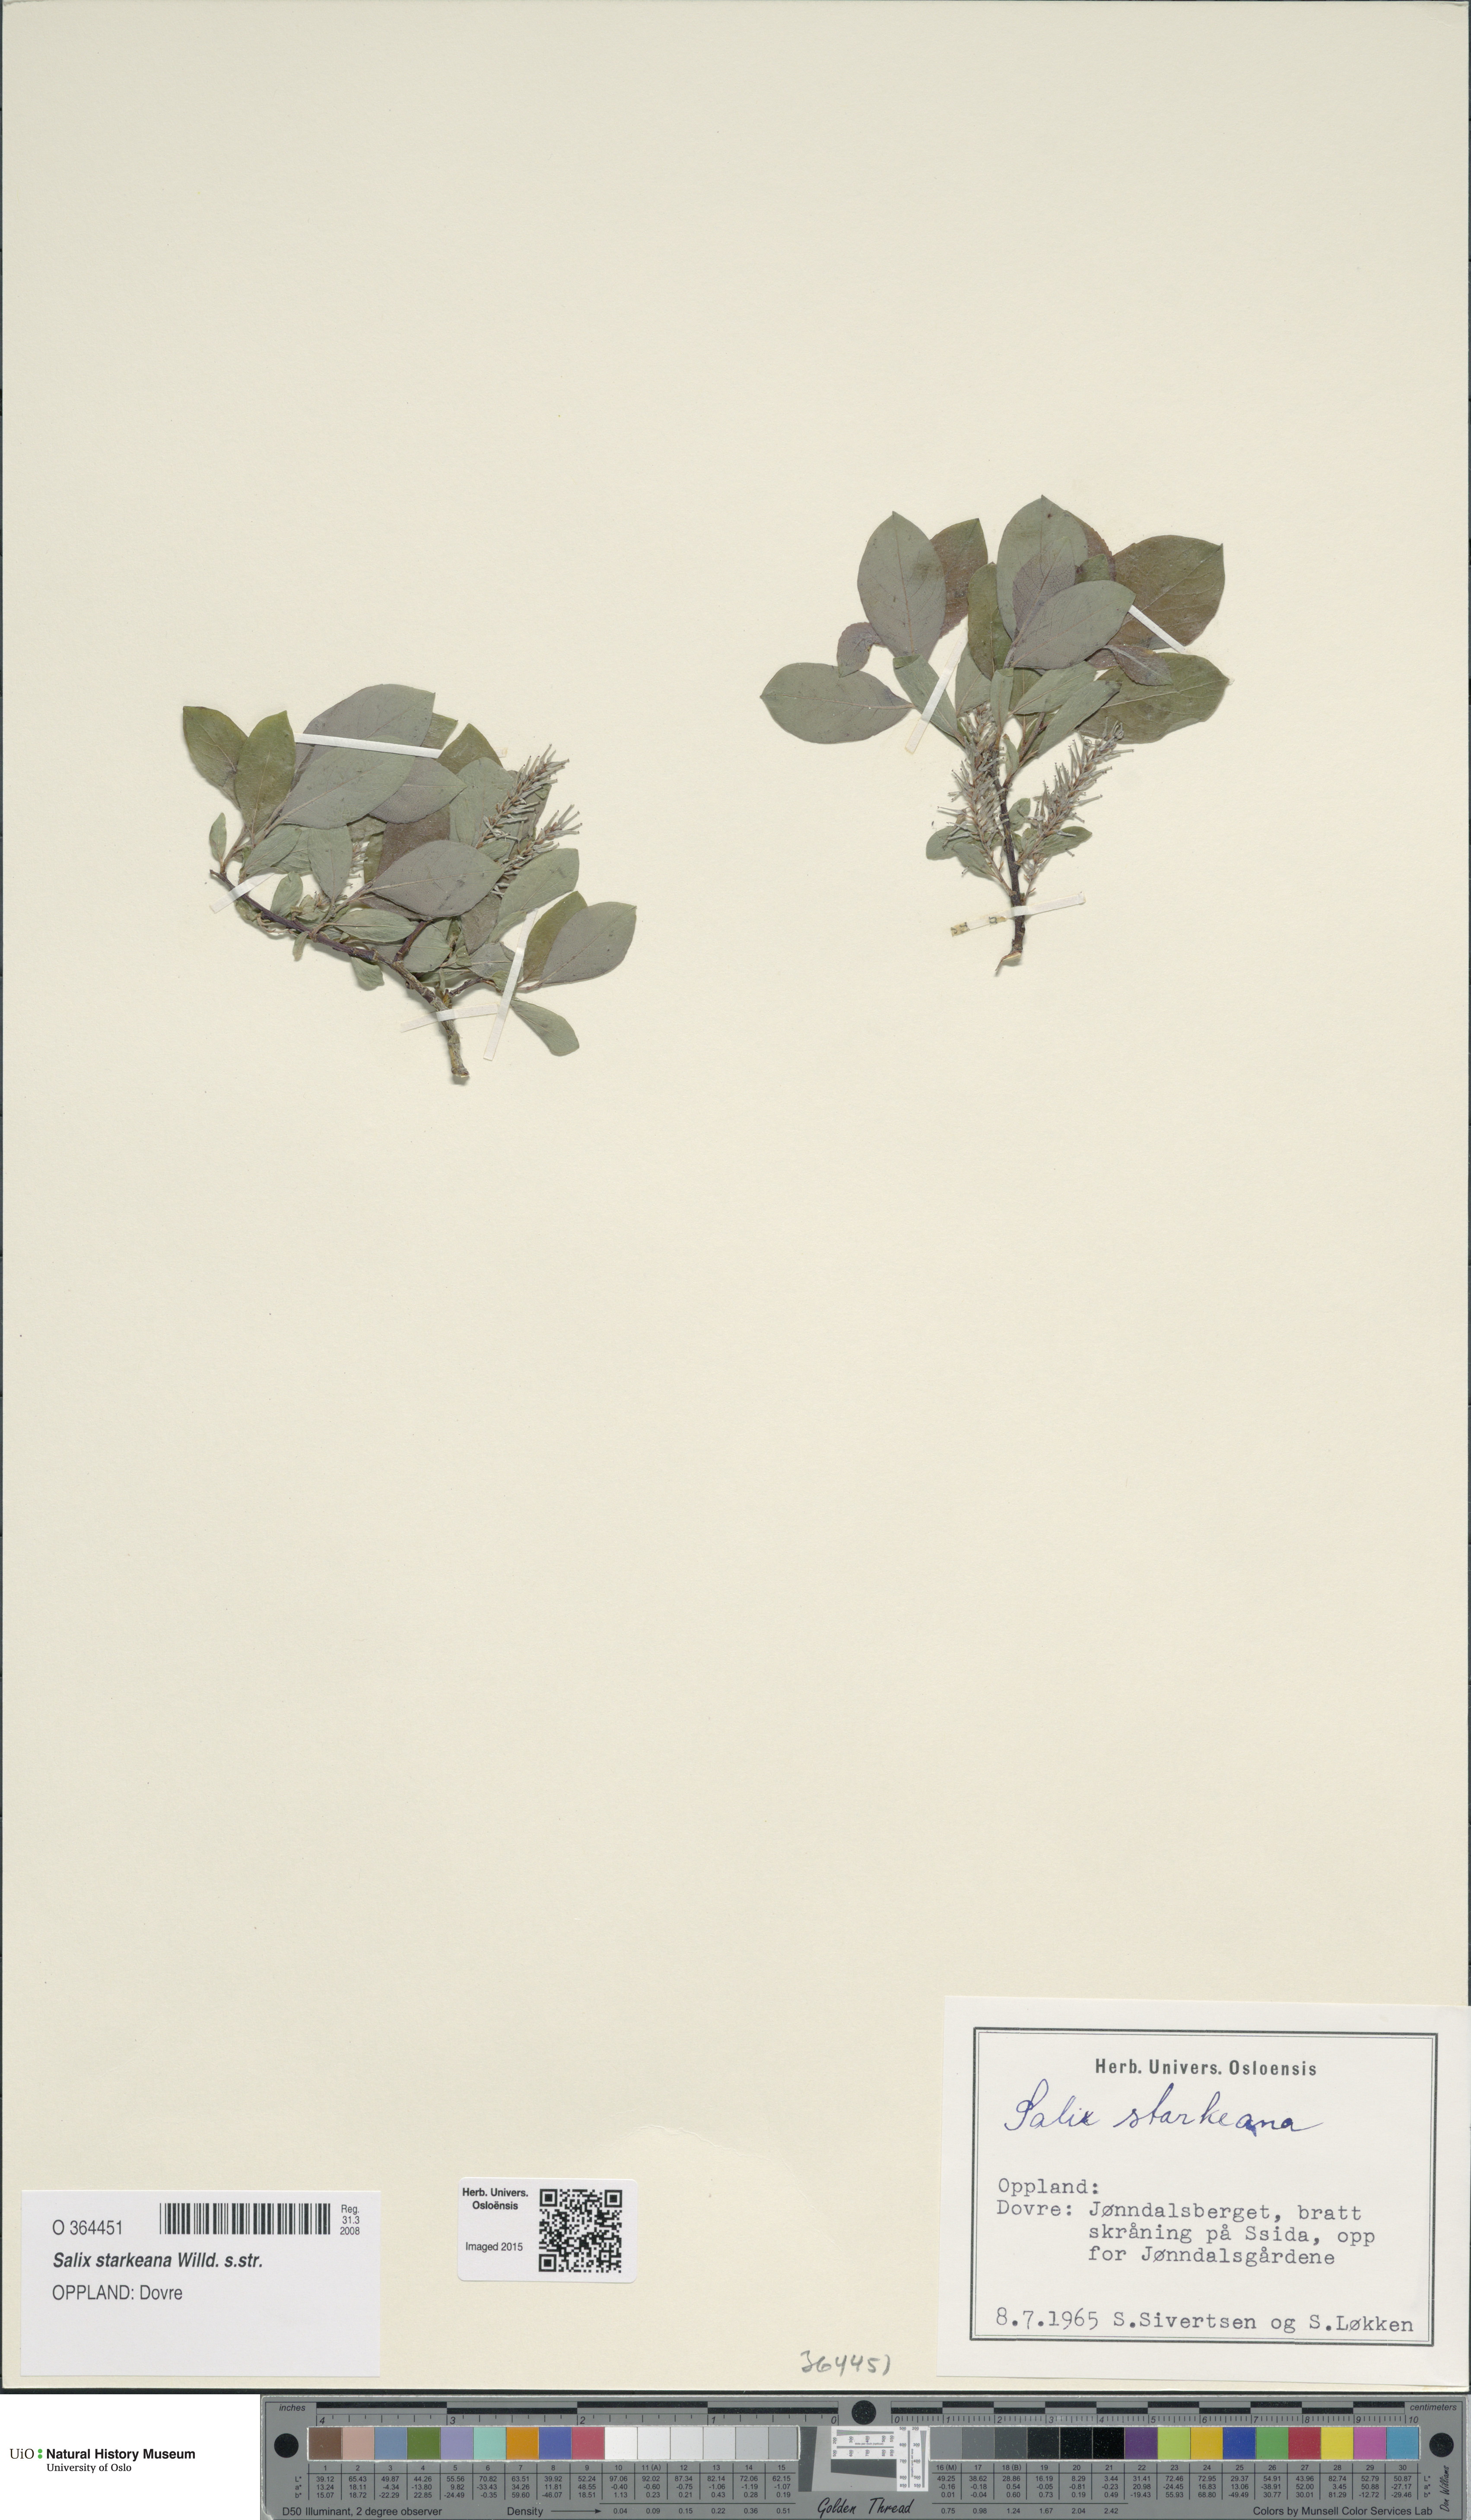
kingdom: Plantae
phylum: Tracheophyta
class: Magnoliopsida
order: Malpighiales
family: Salicaceae
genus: Salix
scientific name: Salix starkeana
